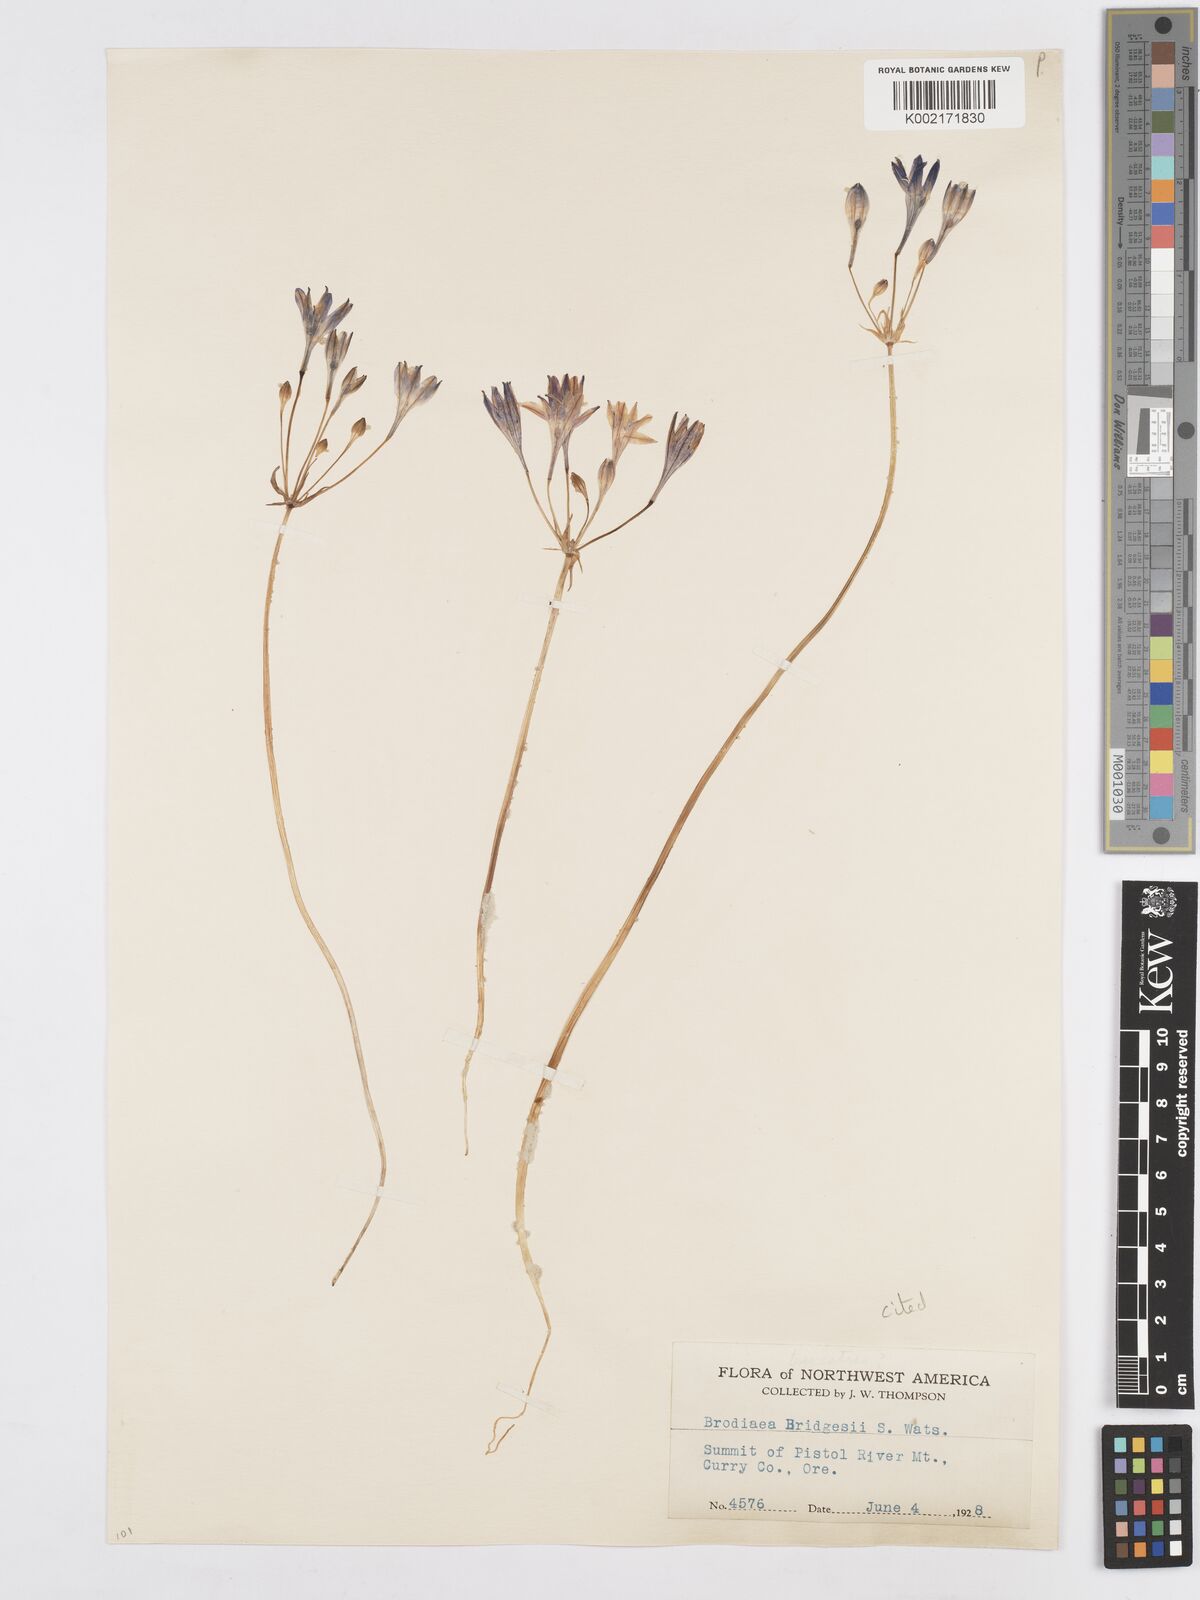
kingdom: Plantae
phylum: Tracheophyta
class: Liliopsida
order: Asparagales
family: Asparagaceae
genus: Triteleia
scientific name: Triteleia bridgesii
